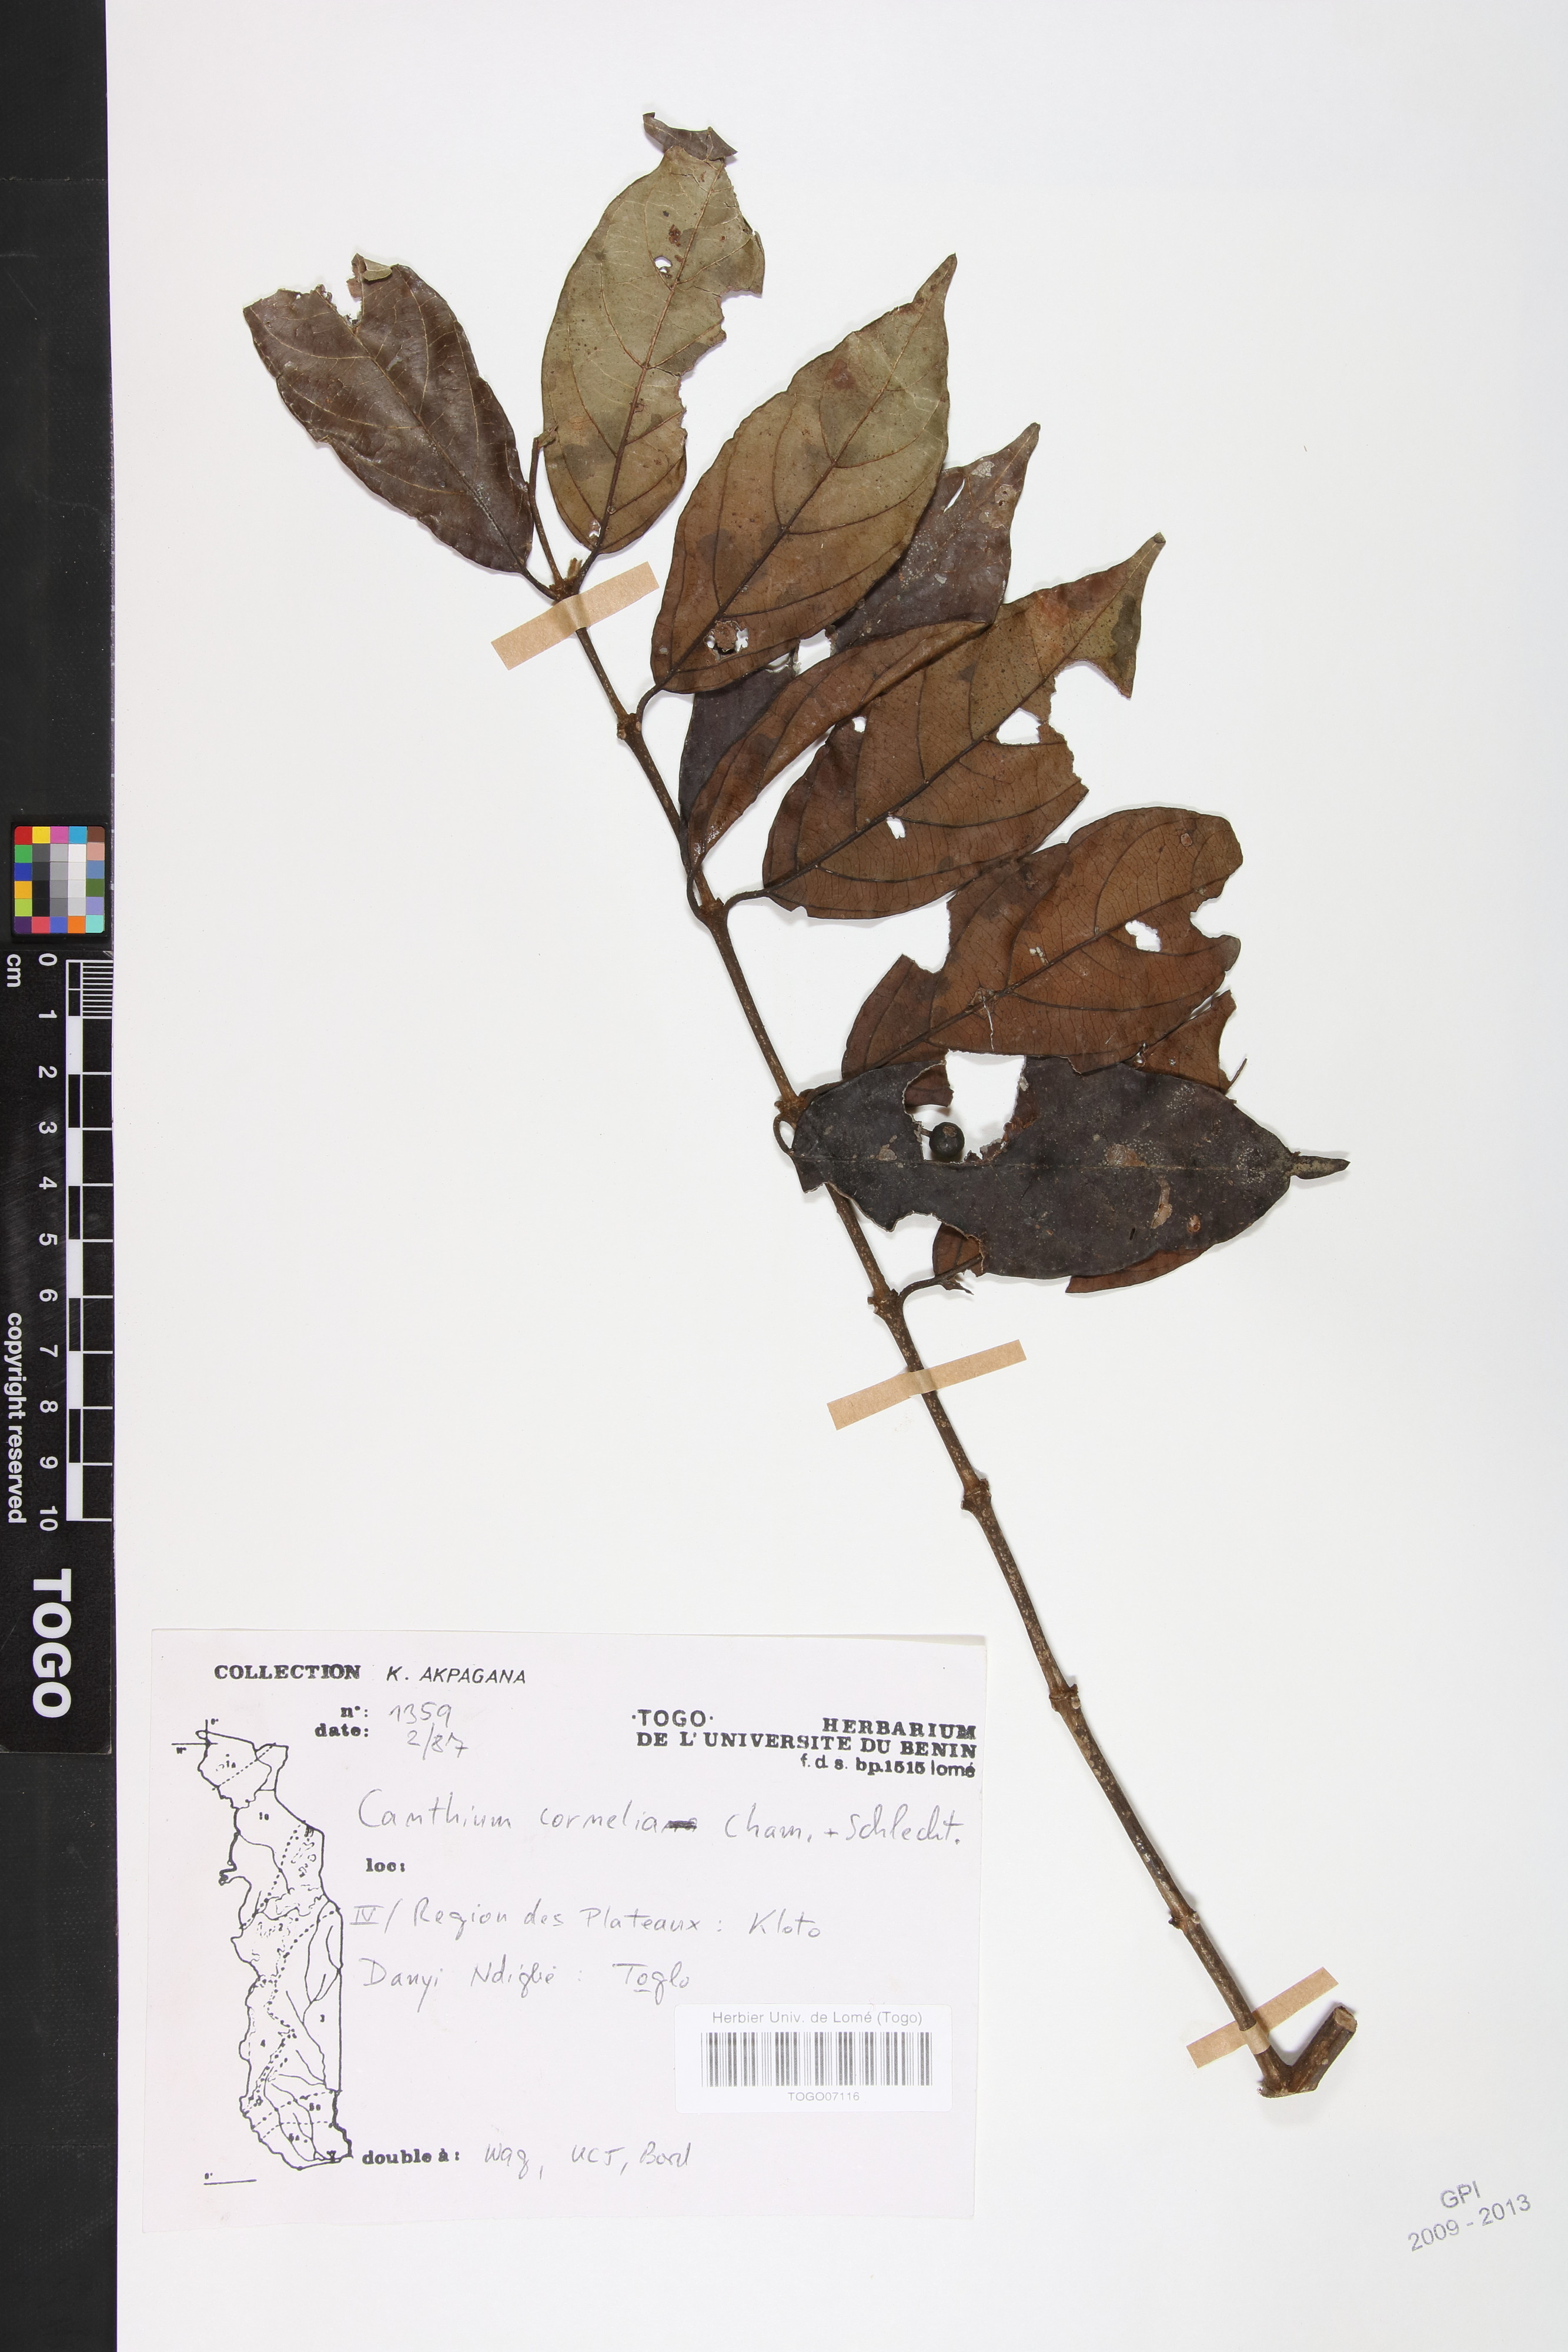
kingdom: Plantae
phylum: Tracheophyta
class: Magnoliopsida
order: Gentianales
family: Rubiaceae
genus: Keetia
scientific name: Keetia cornelia
